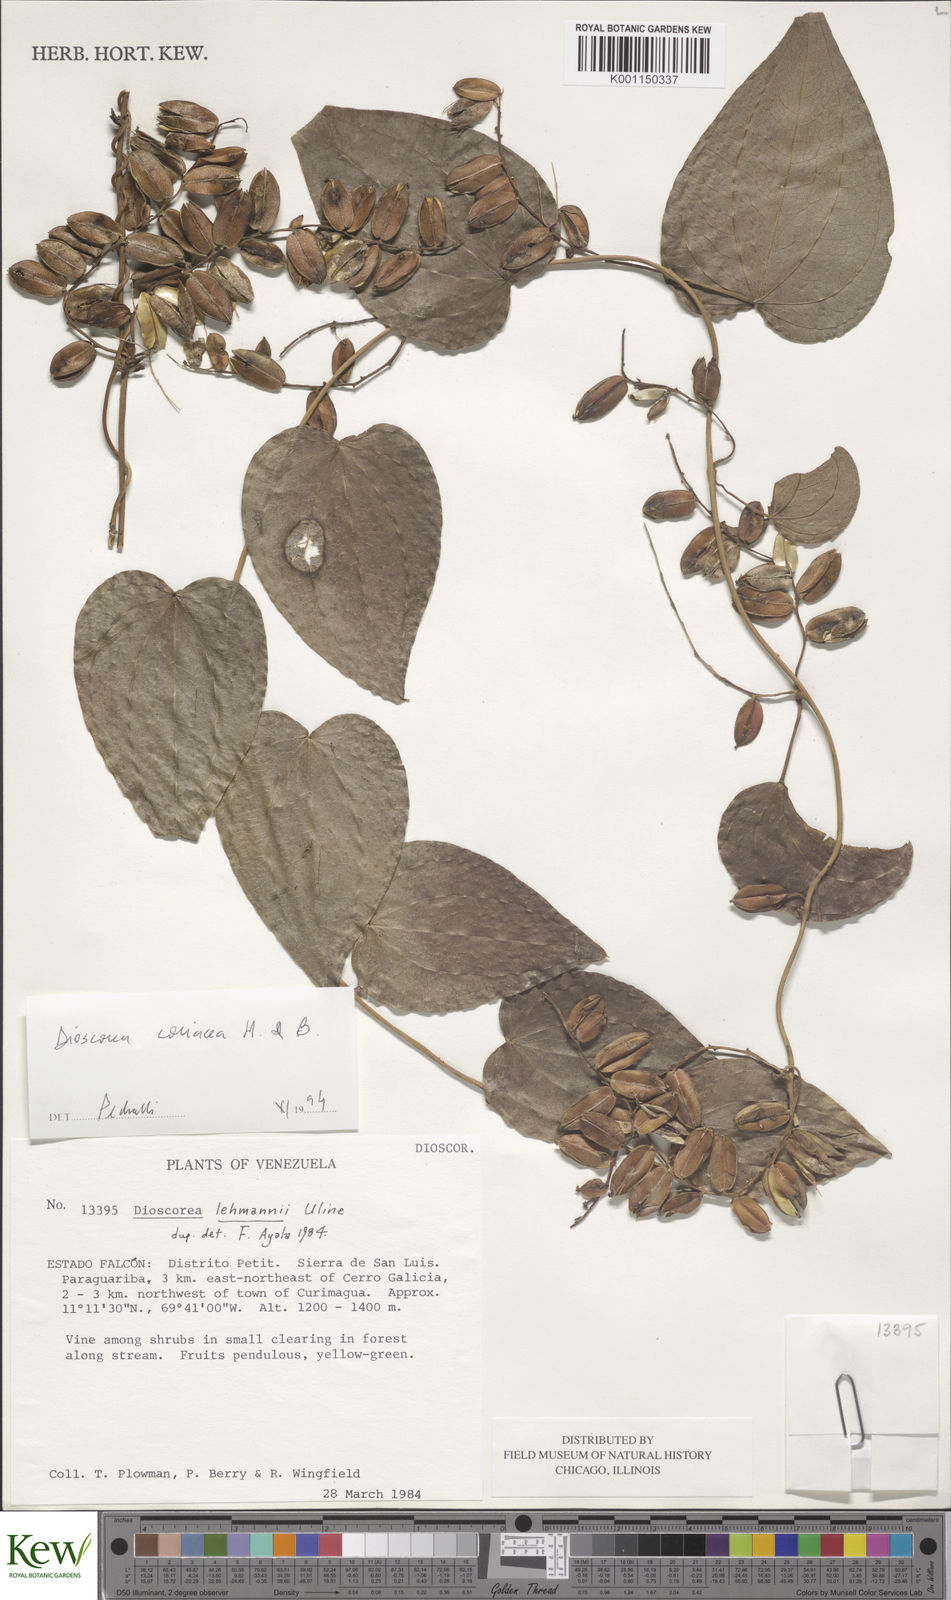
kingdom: Plantae
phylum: Tracheophyta
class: Liliopsida
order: Dioscoreales
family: Dioscoreaceae
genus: Dioscorea
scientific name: Dioscorea lehmannii
